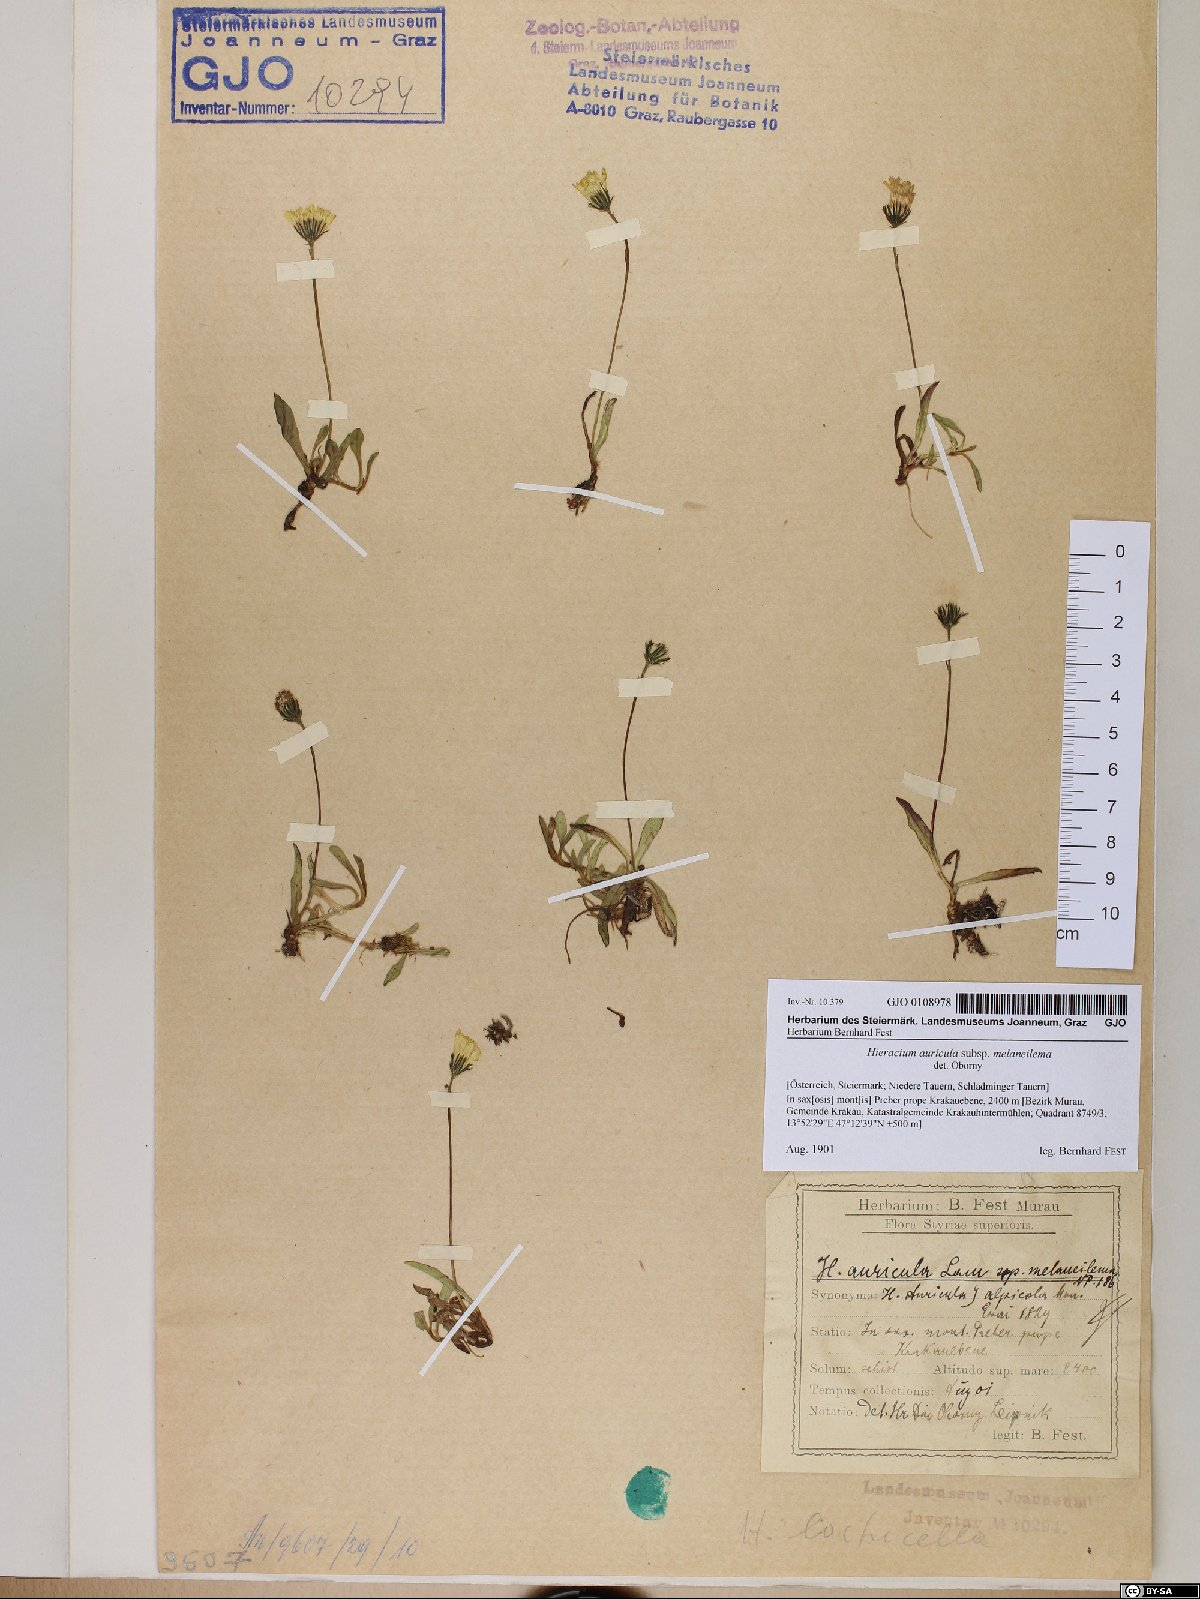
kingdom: Plantae
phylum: Tracheophyta
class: Magnoliopsida
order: Asterales
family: Asteraceae
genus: Pilosella
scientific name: Pilosella lactucella
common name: Glaucous fox-and-cubs
